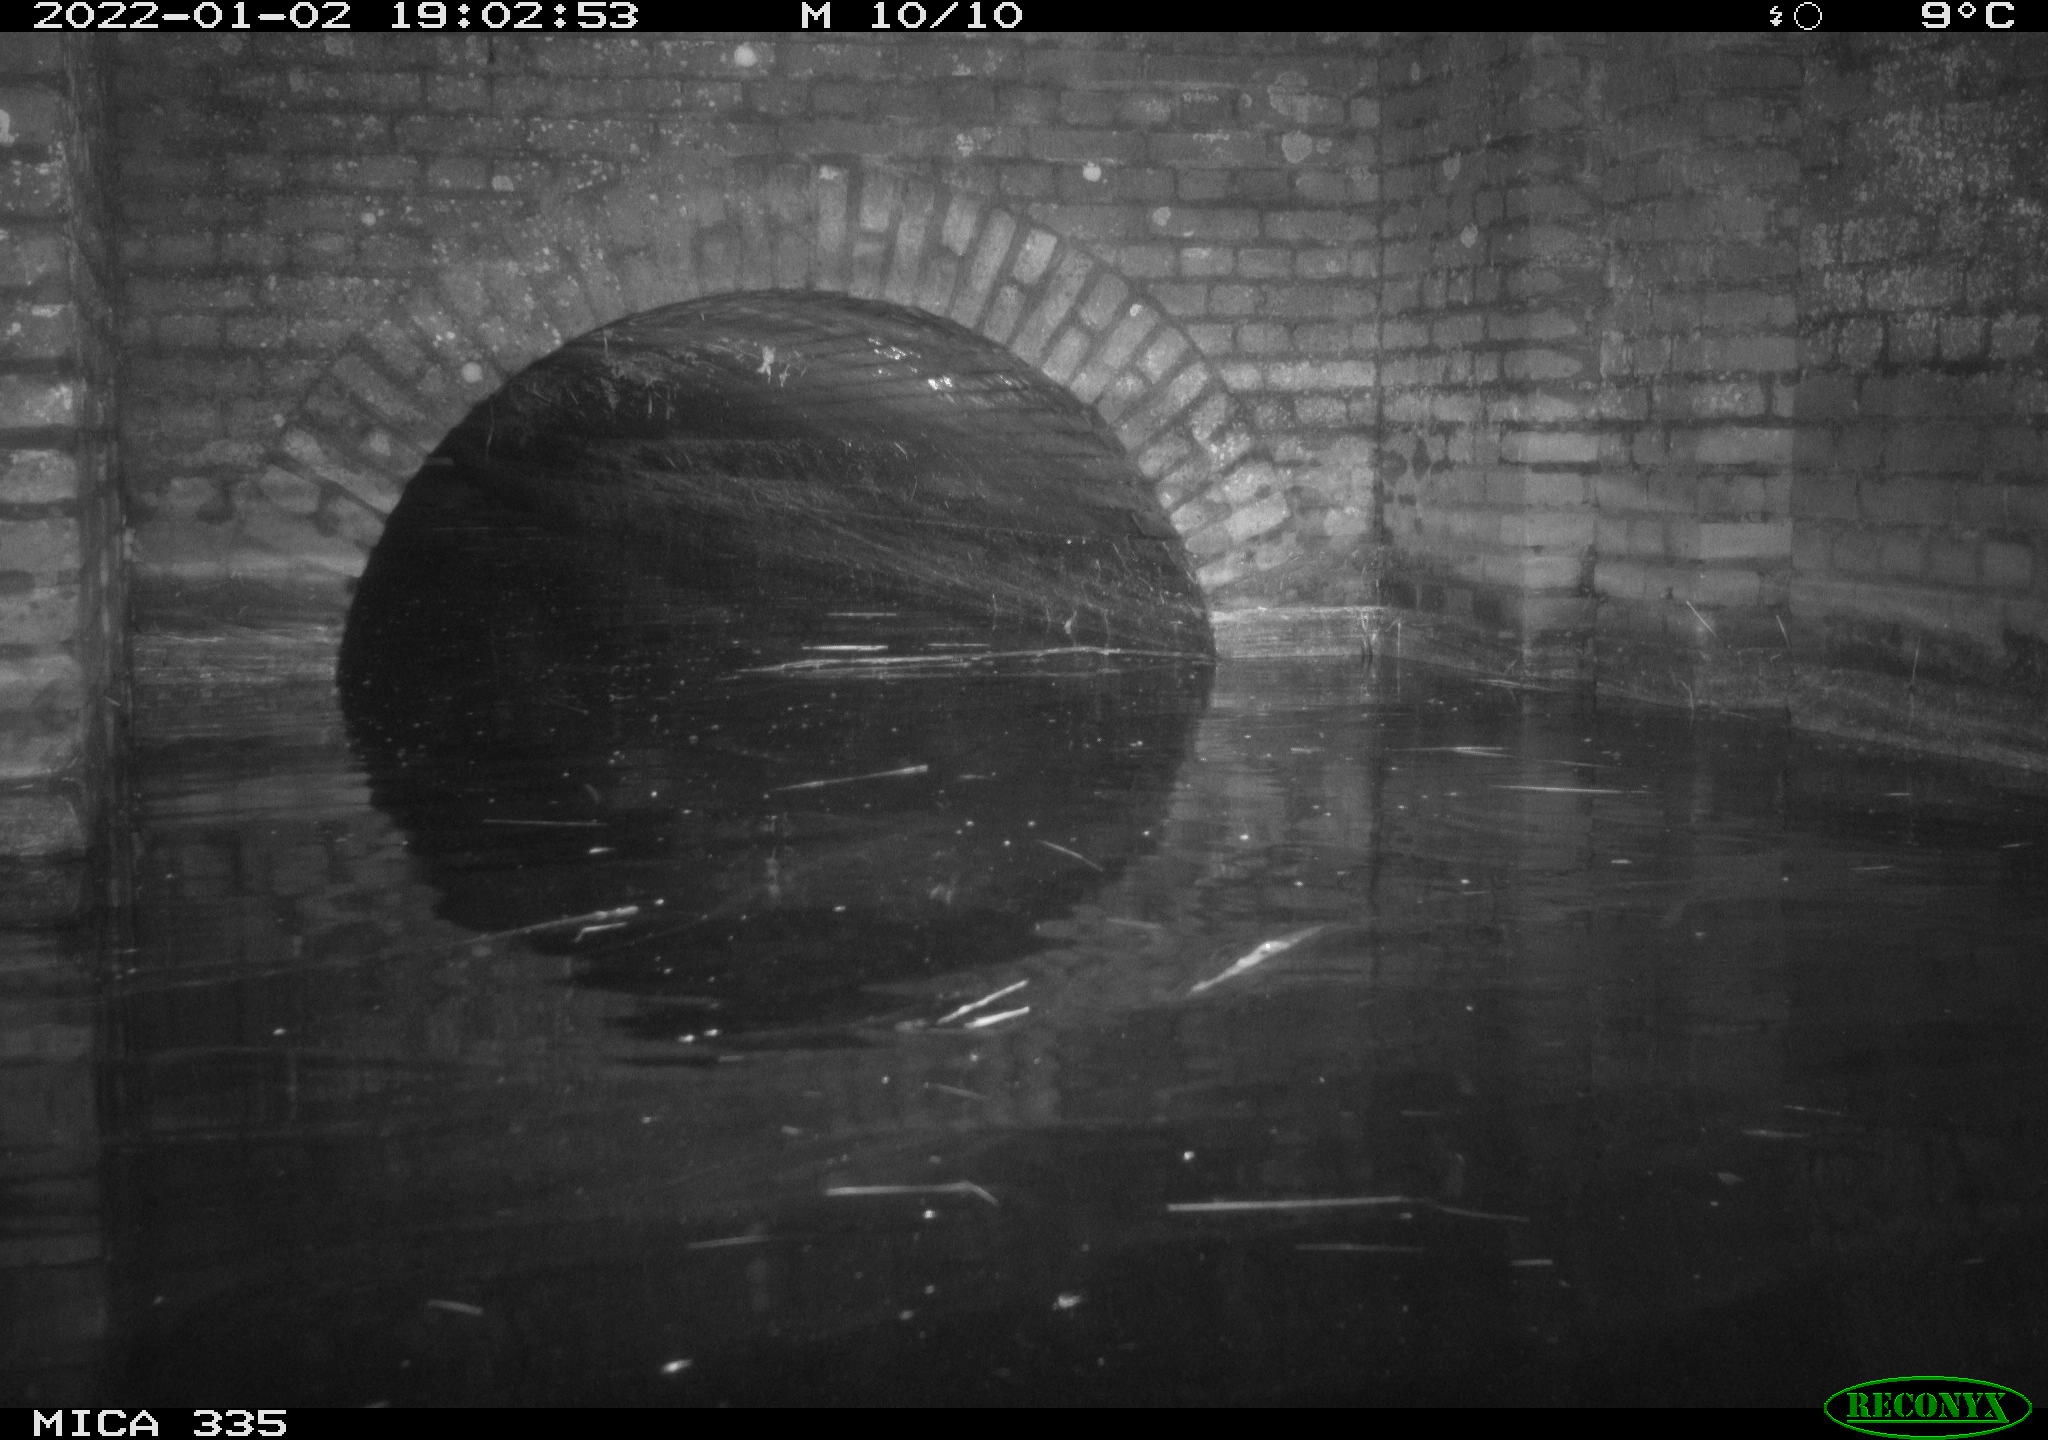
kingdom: Animalia
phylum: Chordata
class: Mammalia
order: Rodentia
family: Muridae
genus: Rattus
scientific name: Rattus norvegicus
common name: Brown rat
